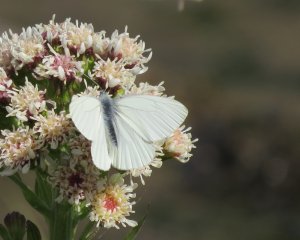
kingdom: Animalia
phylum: Arthropoda
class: Insecta
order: Lepidoptera
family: Pieridae
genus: Pieris
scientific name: Pieris oleracea
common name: Mustard White
